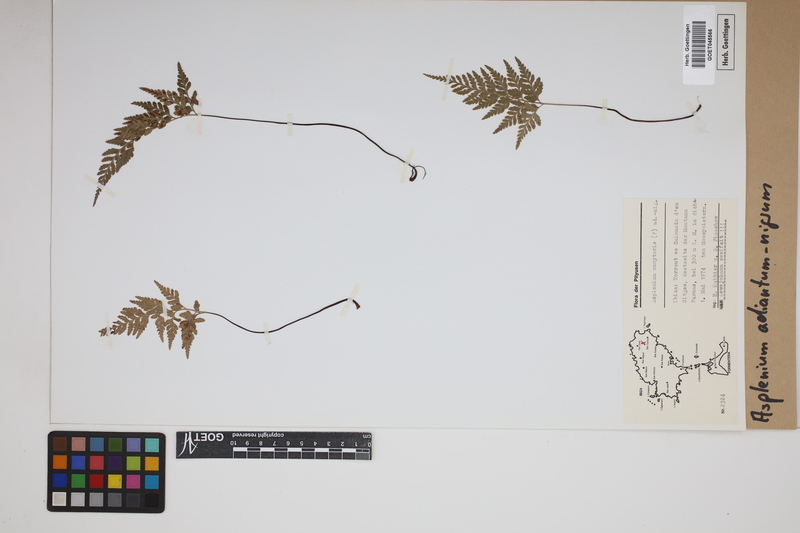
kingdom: Plantae
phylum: Tracheophyta
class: Polypodiopsida
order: Polypodiales
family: Aspleniaceae
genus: Asplenium
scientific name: Asplenium adiantum-nigrum
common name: Black spleenwort
